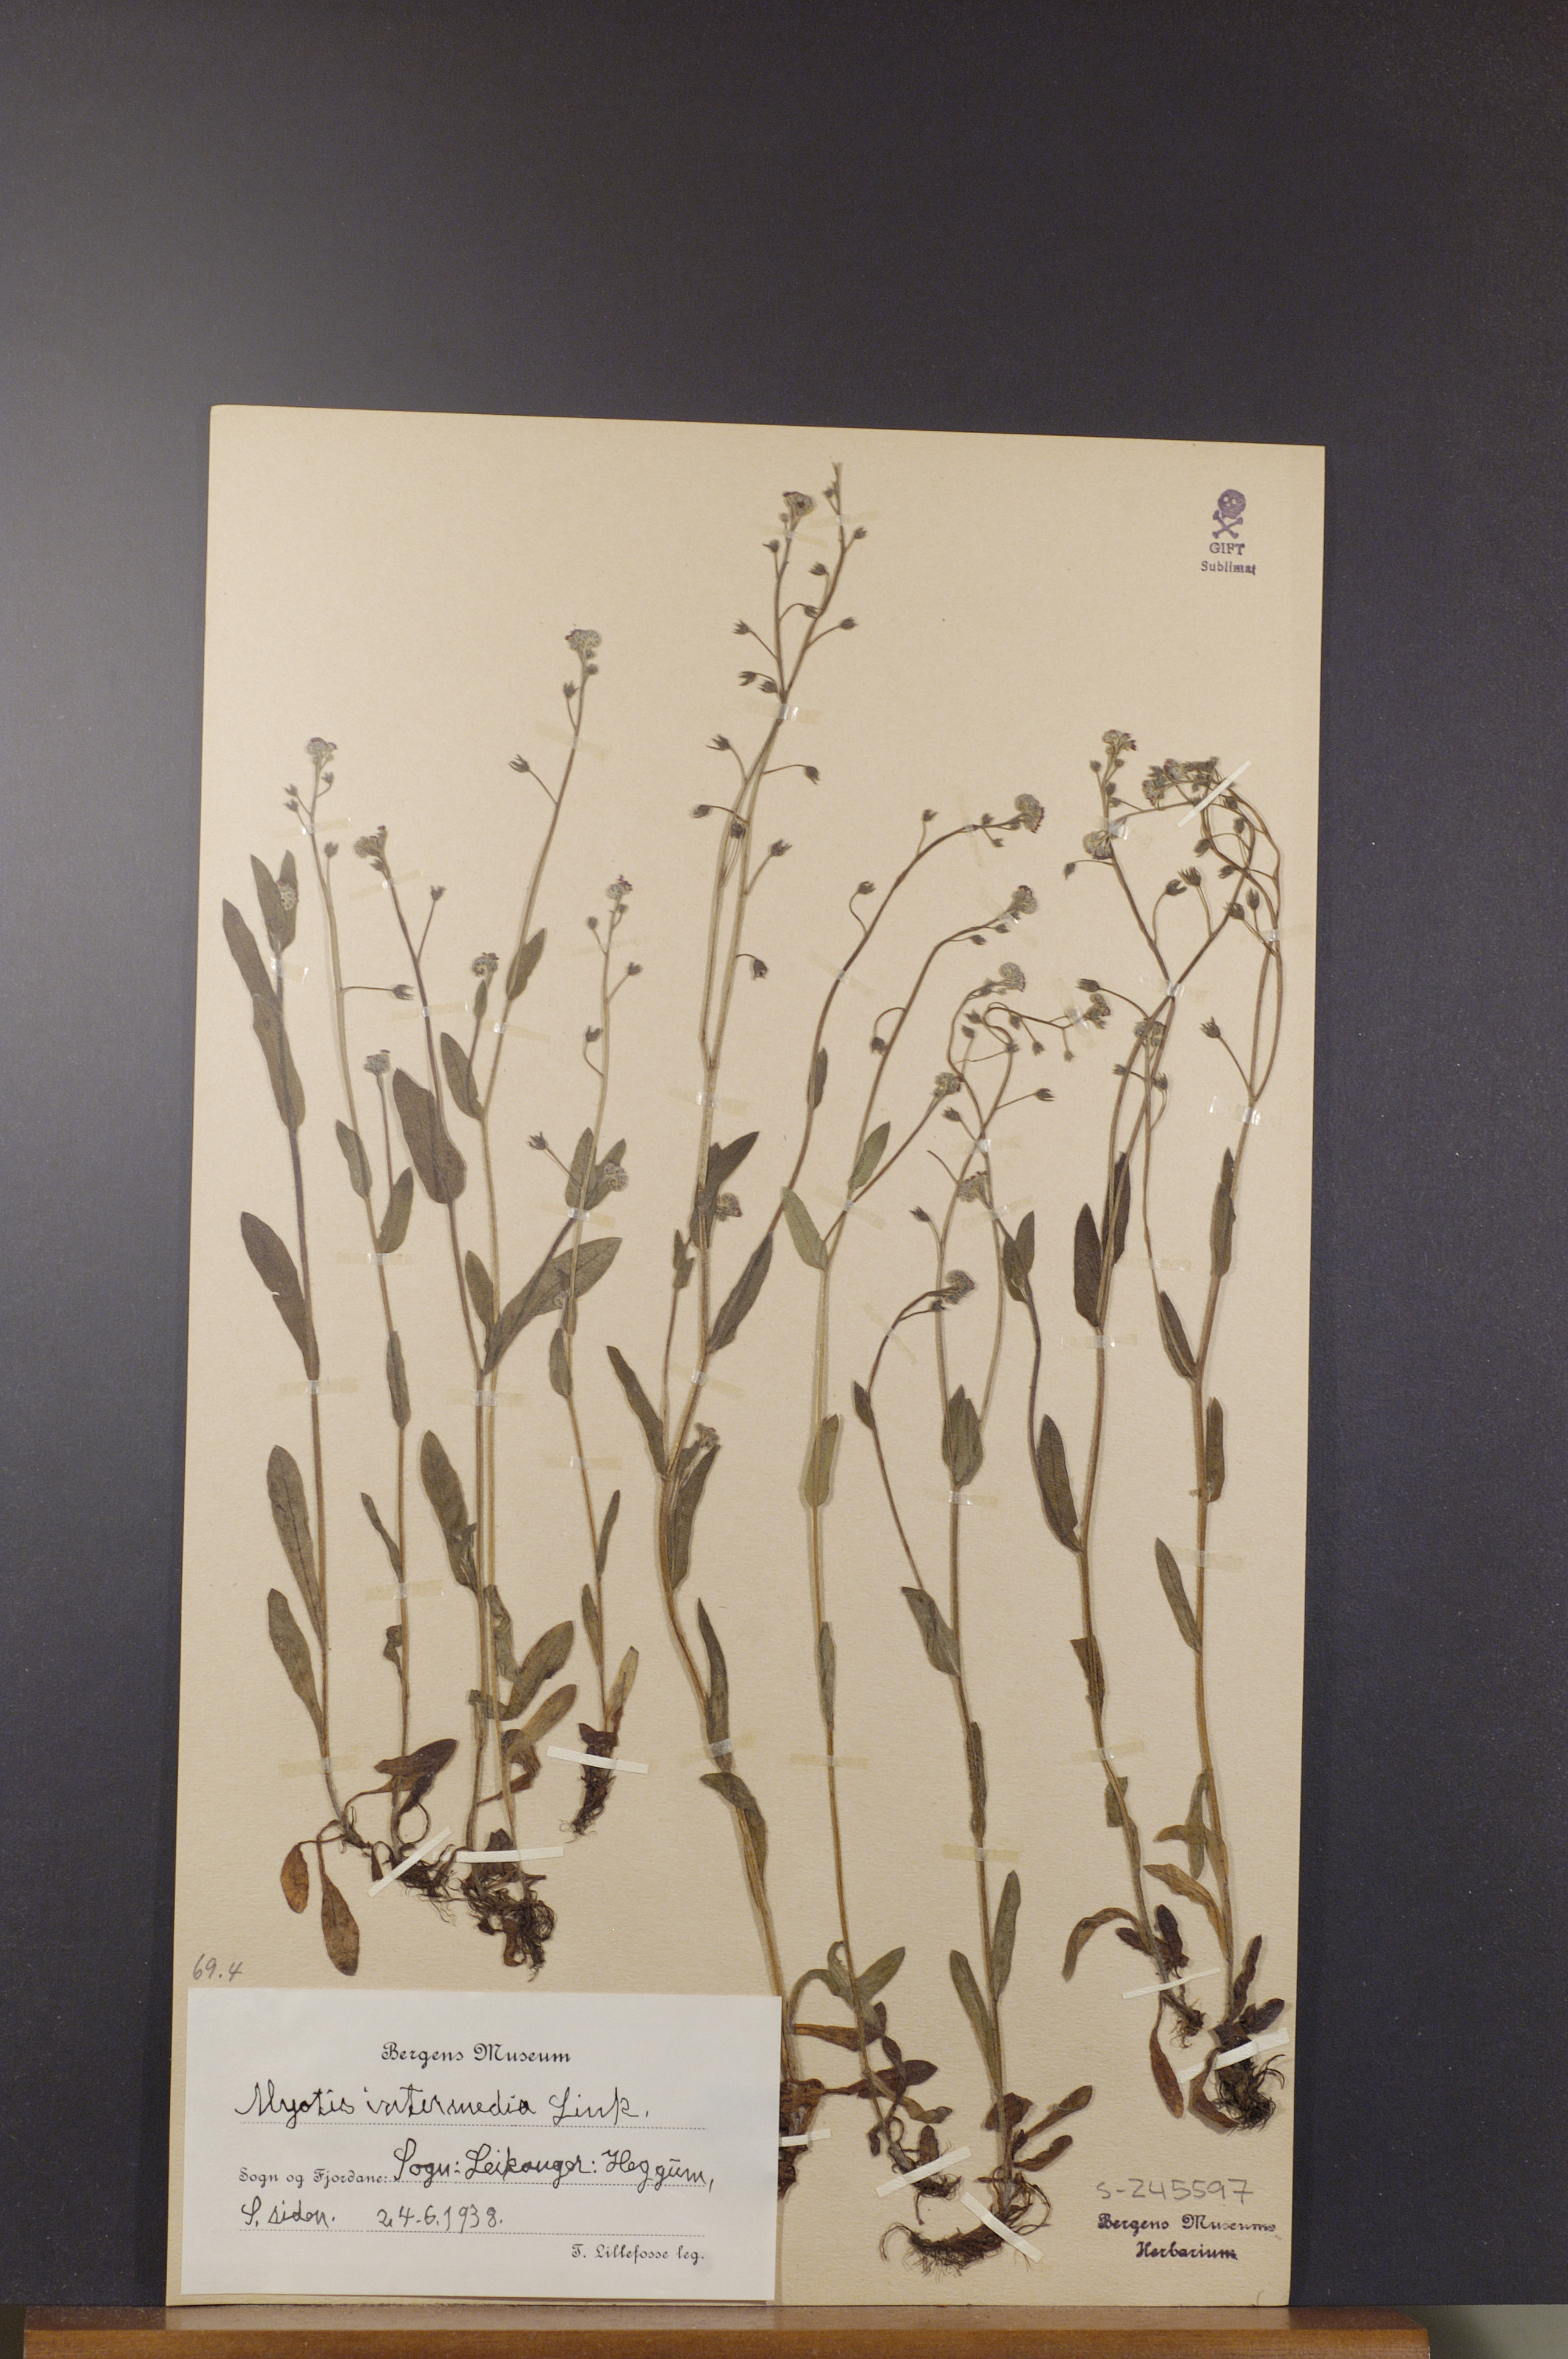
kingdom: Plantae
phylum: Tracheophyta
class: Magnoliopsida
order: Boraginales
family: Boraginaceae
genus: Myosotis
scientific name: Myosotis arvensis
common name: Field forget-me-not
